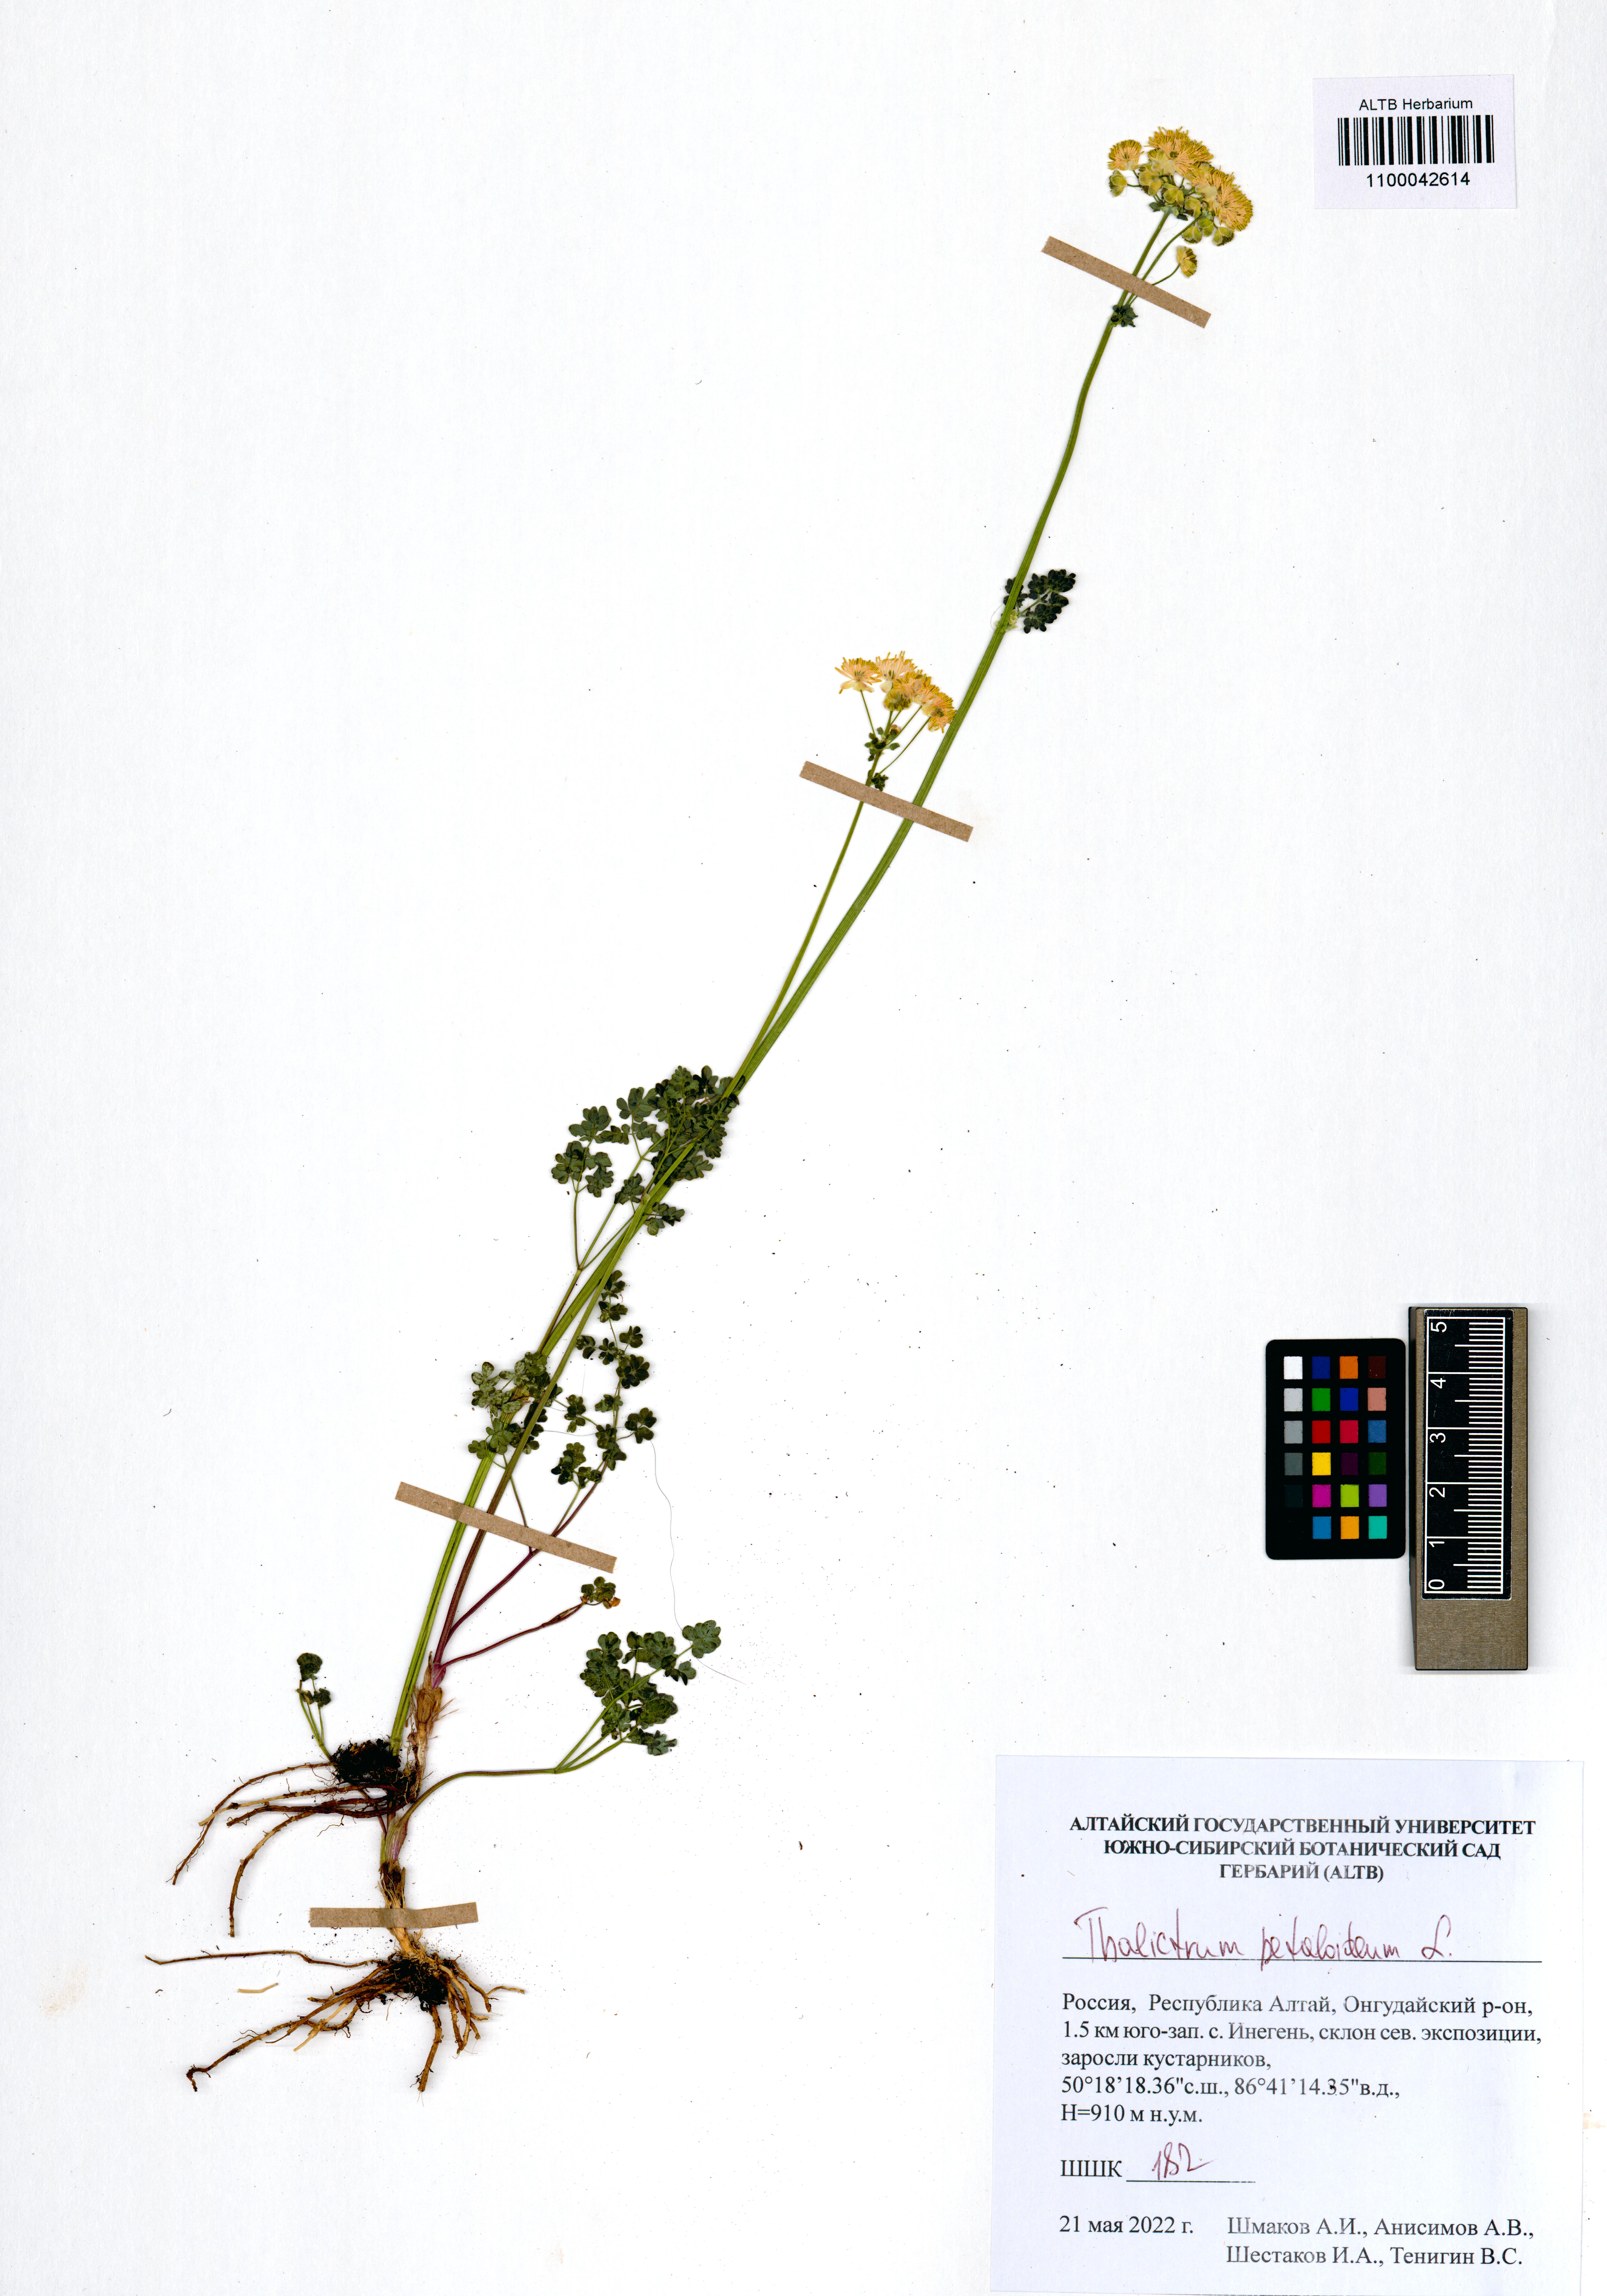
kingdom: Plantae
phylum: Tracheophyta
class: Magnoliopsida
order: Ranunculales
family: Ranunculaceae
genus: Thalictrum
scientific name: Thalictrum petaloideum
